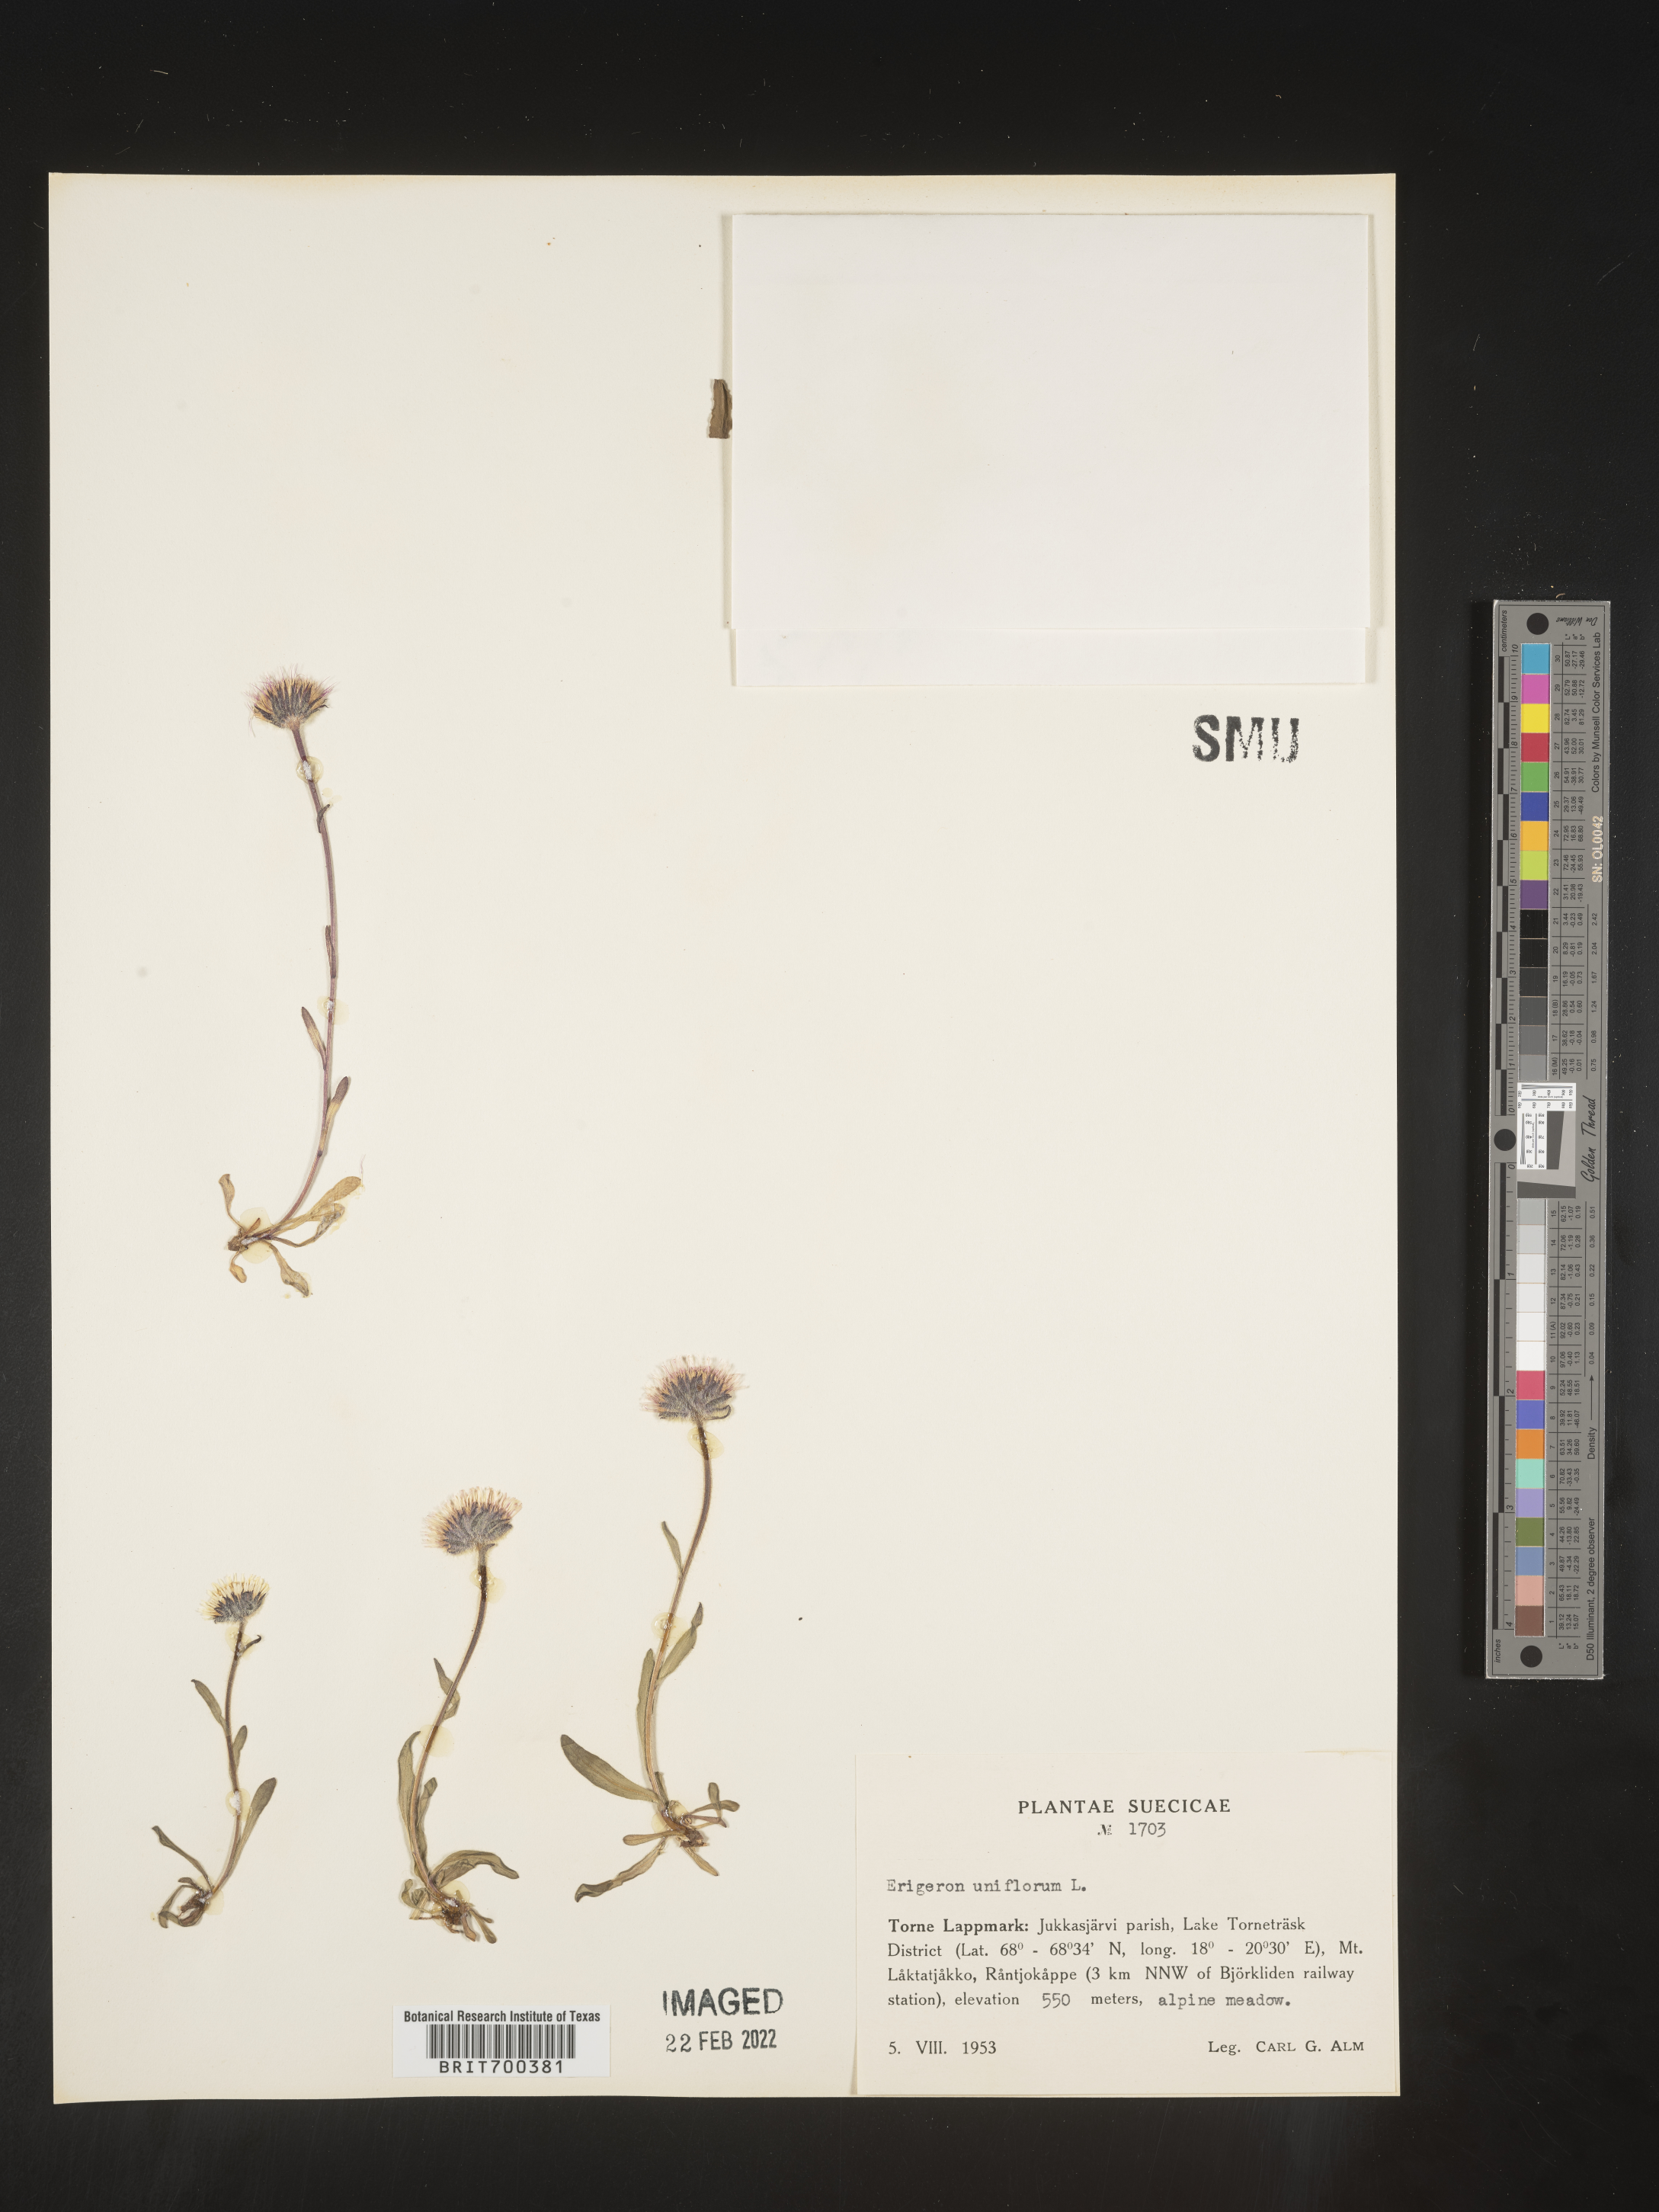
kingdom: Plantae
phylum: Tracheophyta
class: Magnoliopsida
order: Asterales
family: Asteraceae
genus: Erigeron
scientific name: Erigeron
